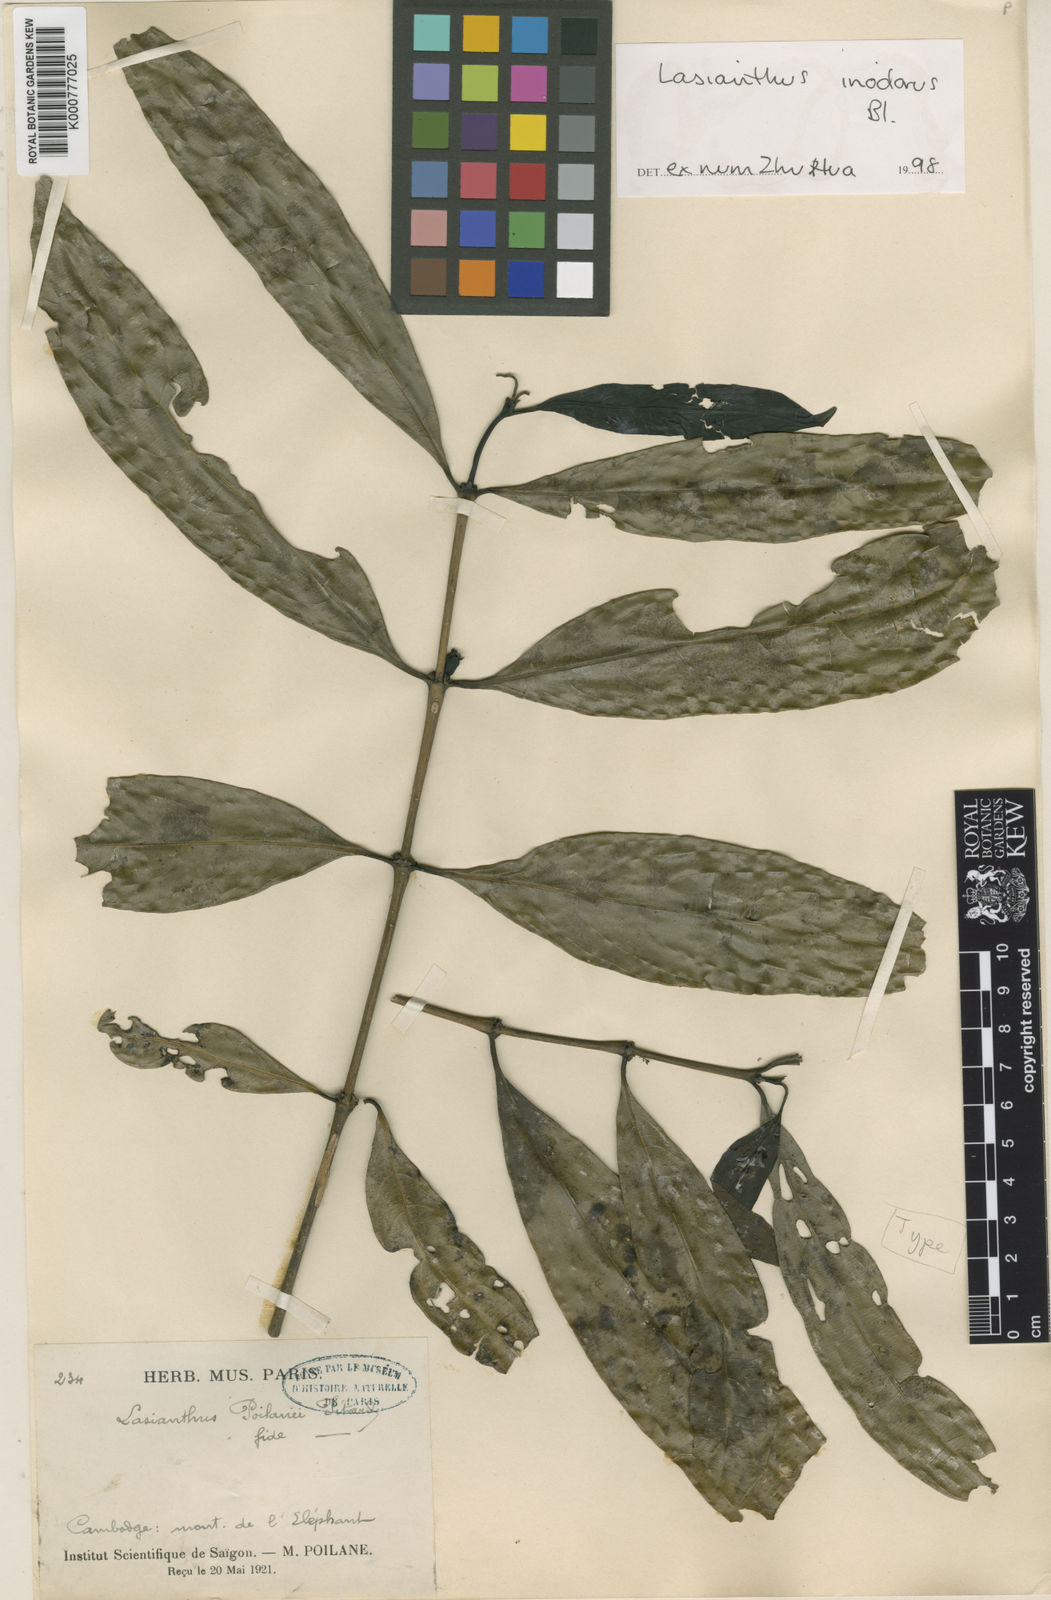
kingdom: Plantae
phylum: Tracheophyta
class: Magnoliopsida
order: Gentianales
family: Rubiaceae
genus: Lasianthus
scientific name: Lasianthus inodorus
